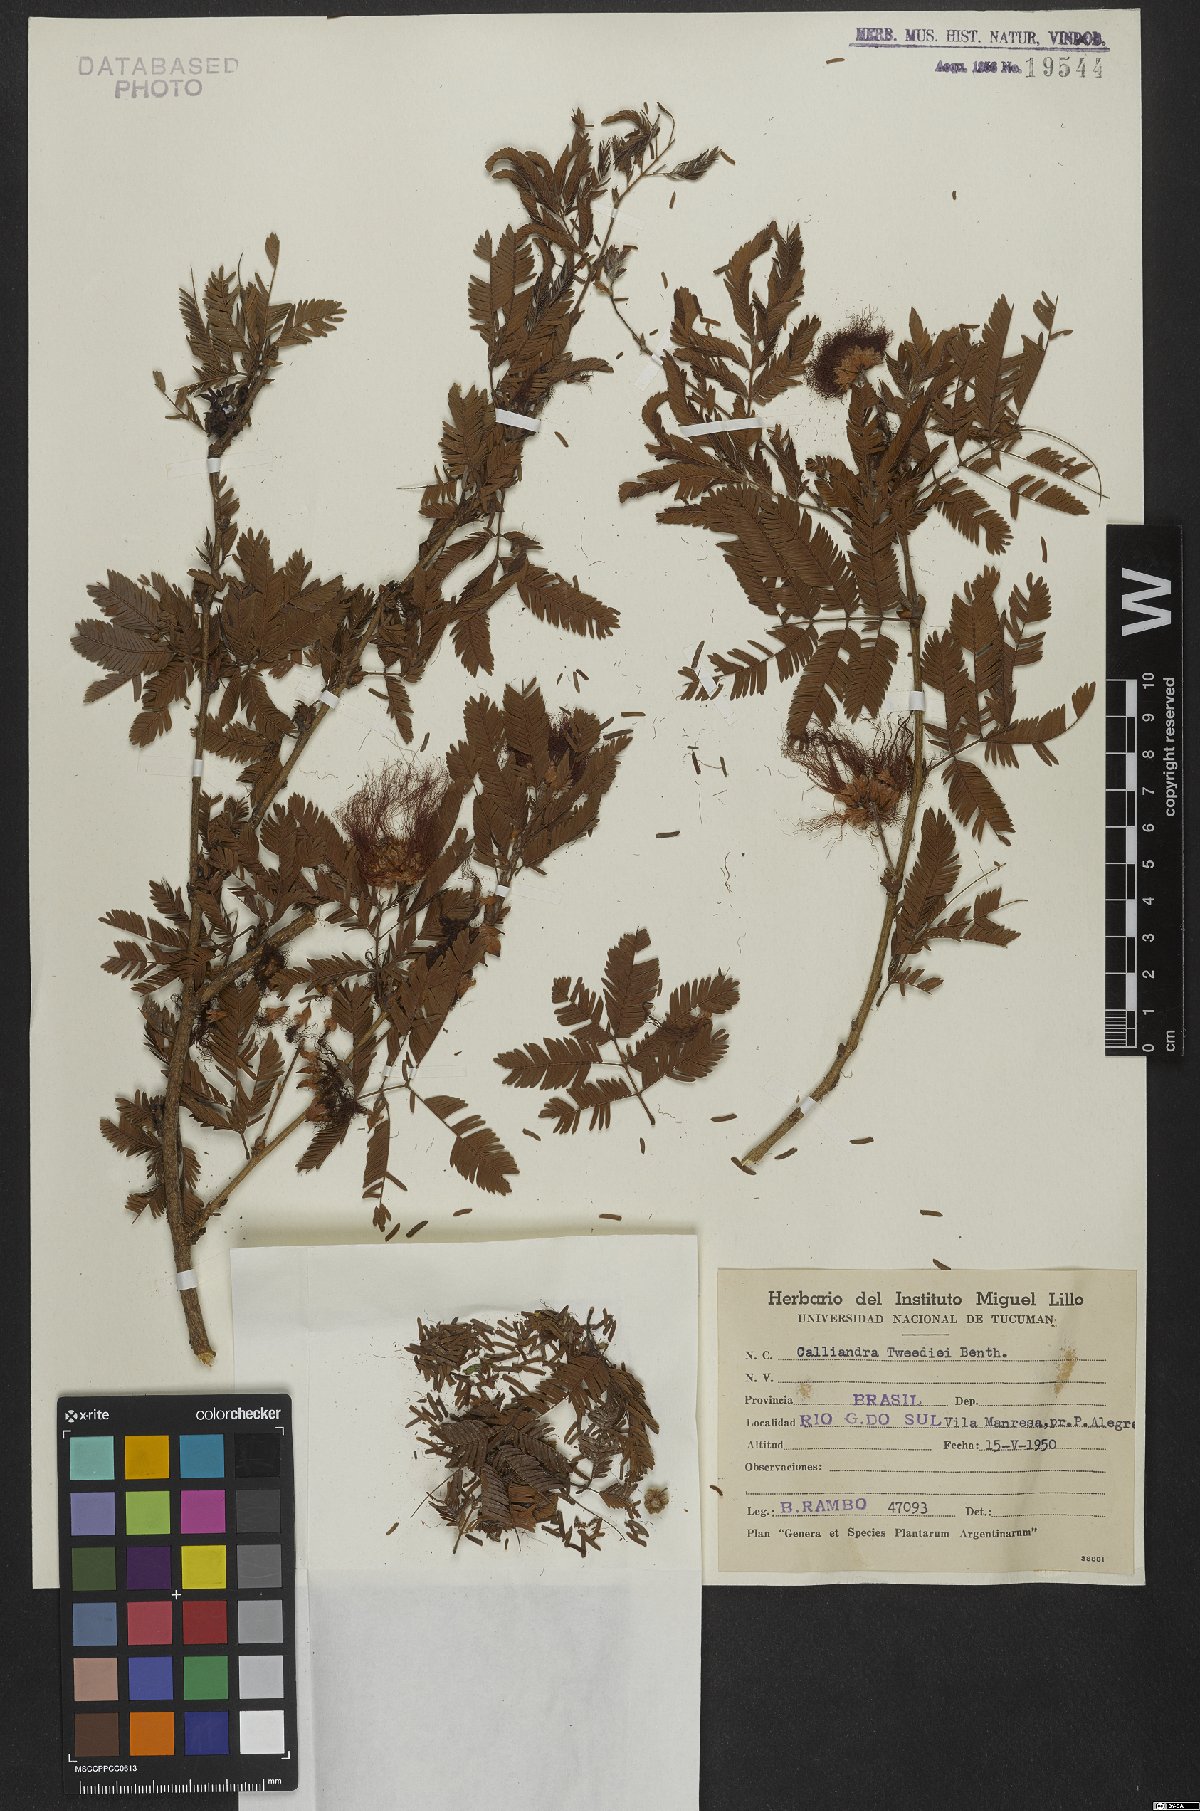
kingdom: Plantae
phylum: Tracheophyta
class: Magnoliopsida
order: Fabales
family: Fabaceae
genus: Calliandra
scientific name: Calliandra tweedii
